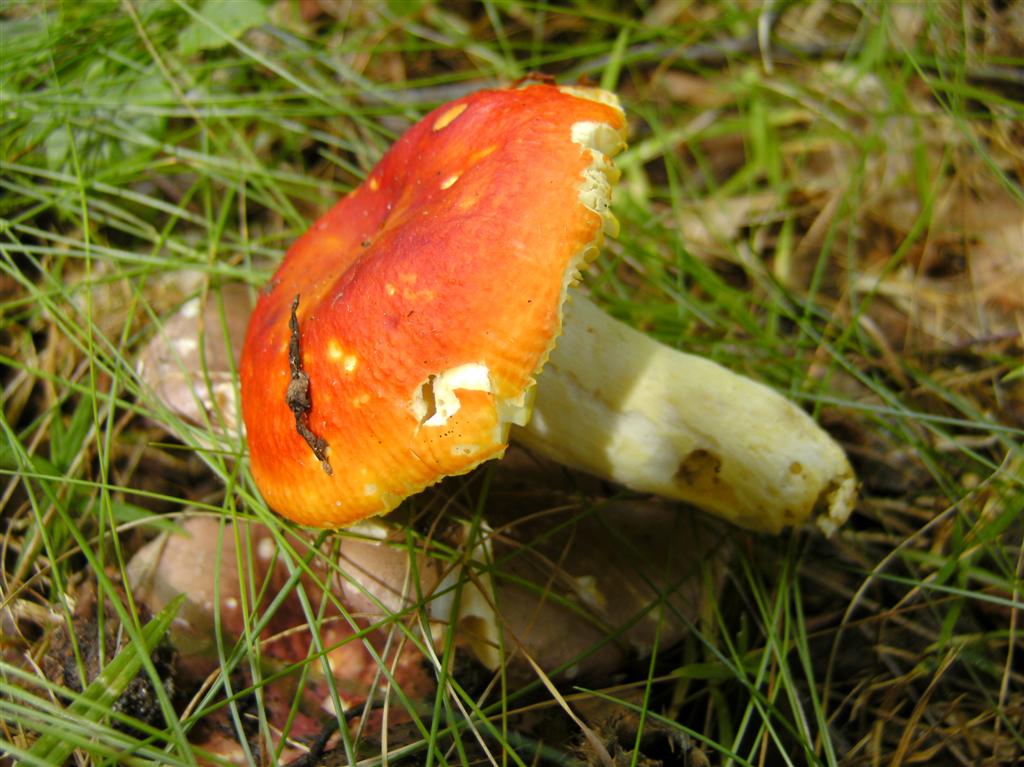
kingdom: Fungi
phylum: Basidiomycota
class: Agaricomycetes
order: Russulales
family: Russulaceae
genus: Russula
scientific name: Russula aurea
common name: gylden skørhat
